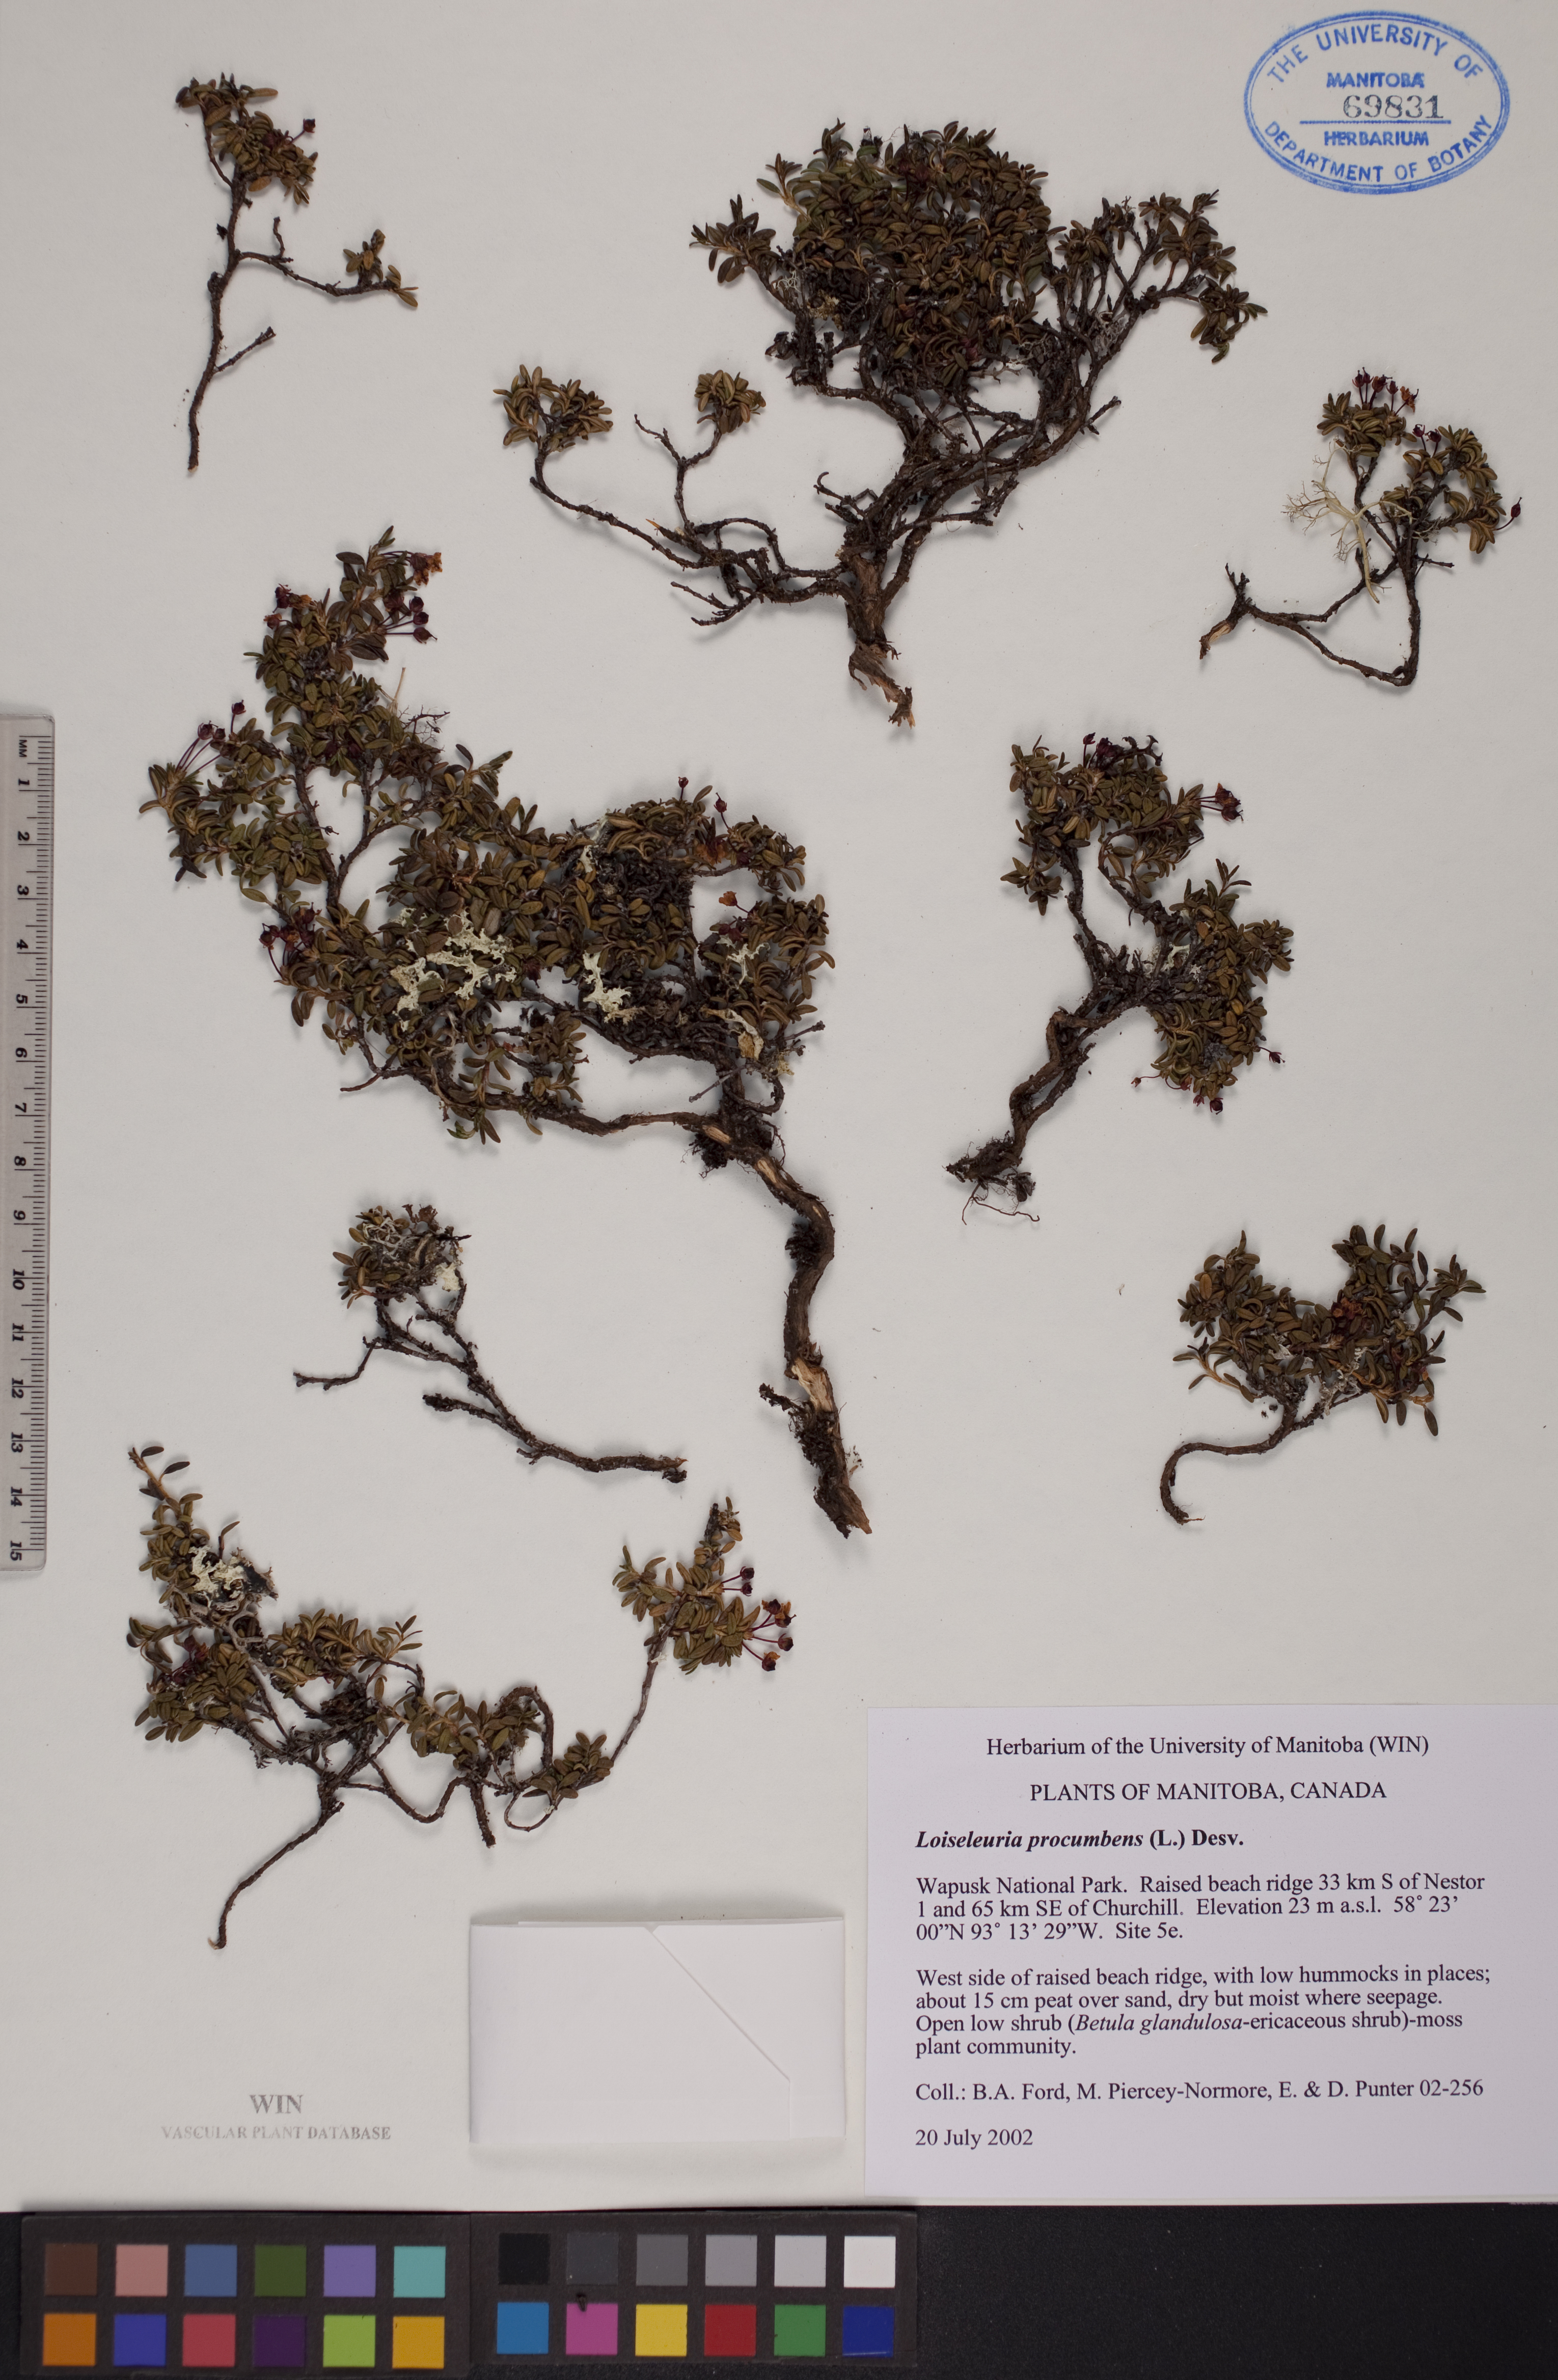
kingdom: Plantae
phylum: Tracheophyta
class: Magnoliopsida
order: Ericales
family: Ericaceae
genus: Kalmia
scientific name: Kalmia procumbens
